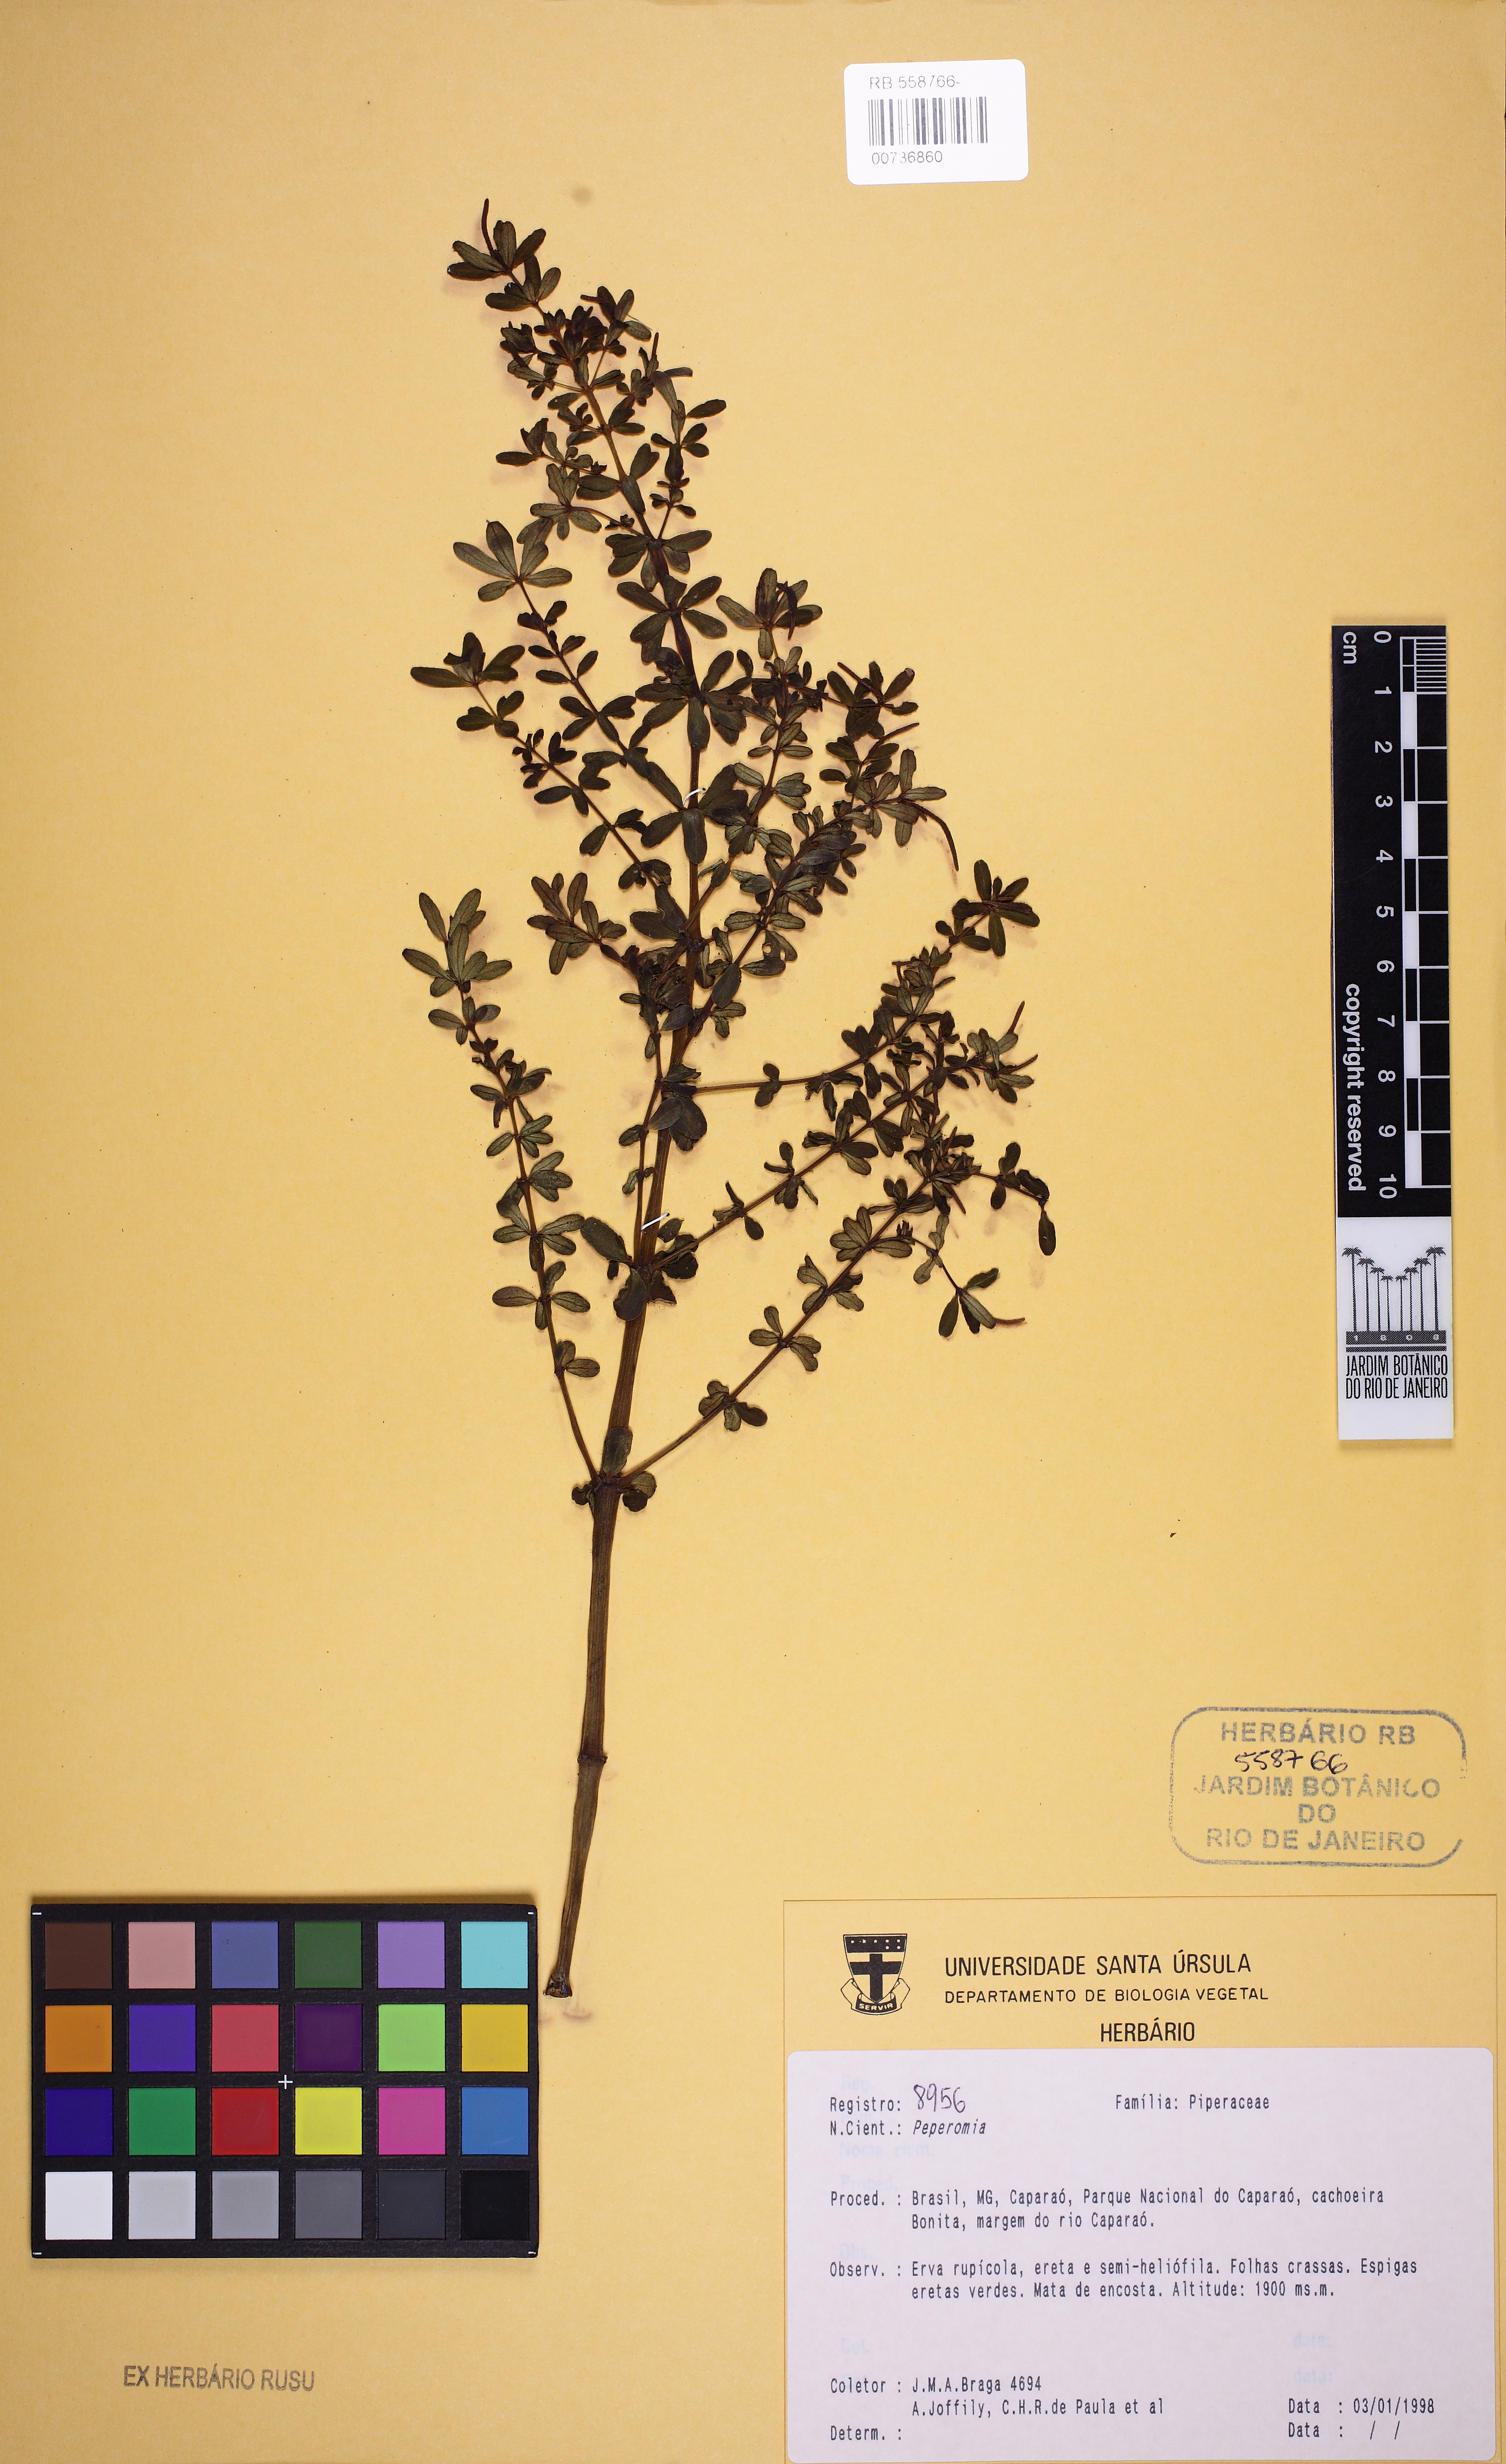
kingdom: Plantae
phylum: Tracheophyta
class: Magnoliopsida
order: Piperales
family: Piperaceae
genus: Peperomia
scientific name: Peperomia galioides
